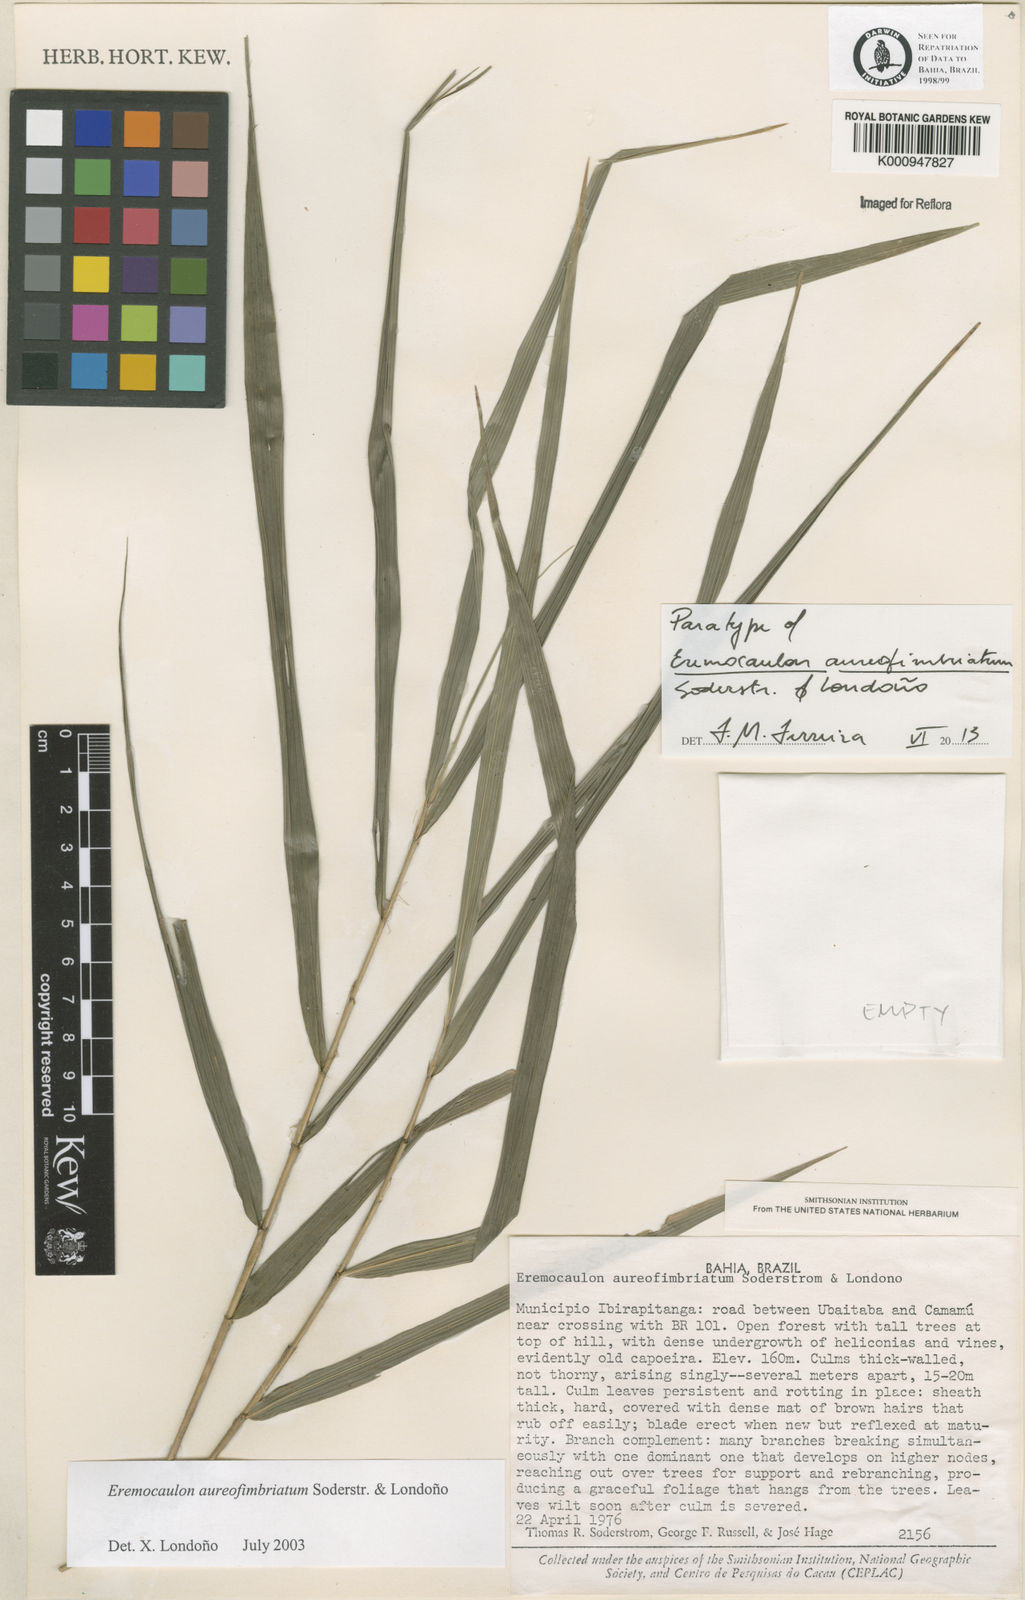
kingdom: Plantae
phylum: Tracheophyta
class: Liliopsida
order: Poales
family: Poaceae
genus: Eremocaulon
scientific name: Eremocaulon
